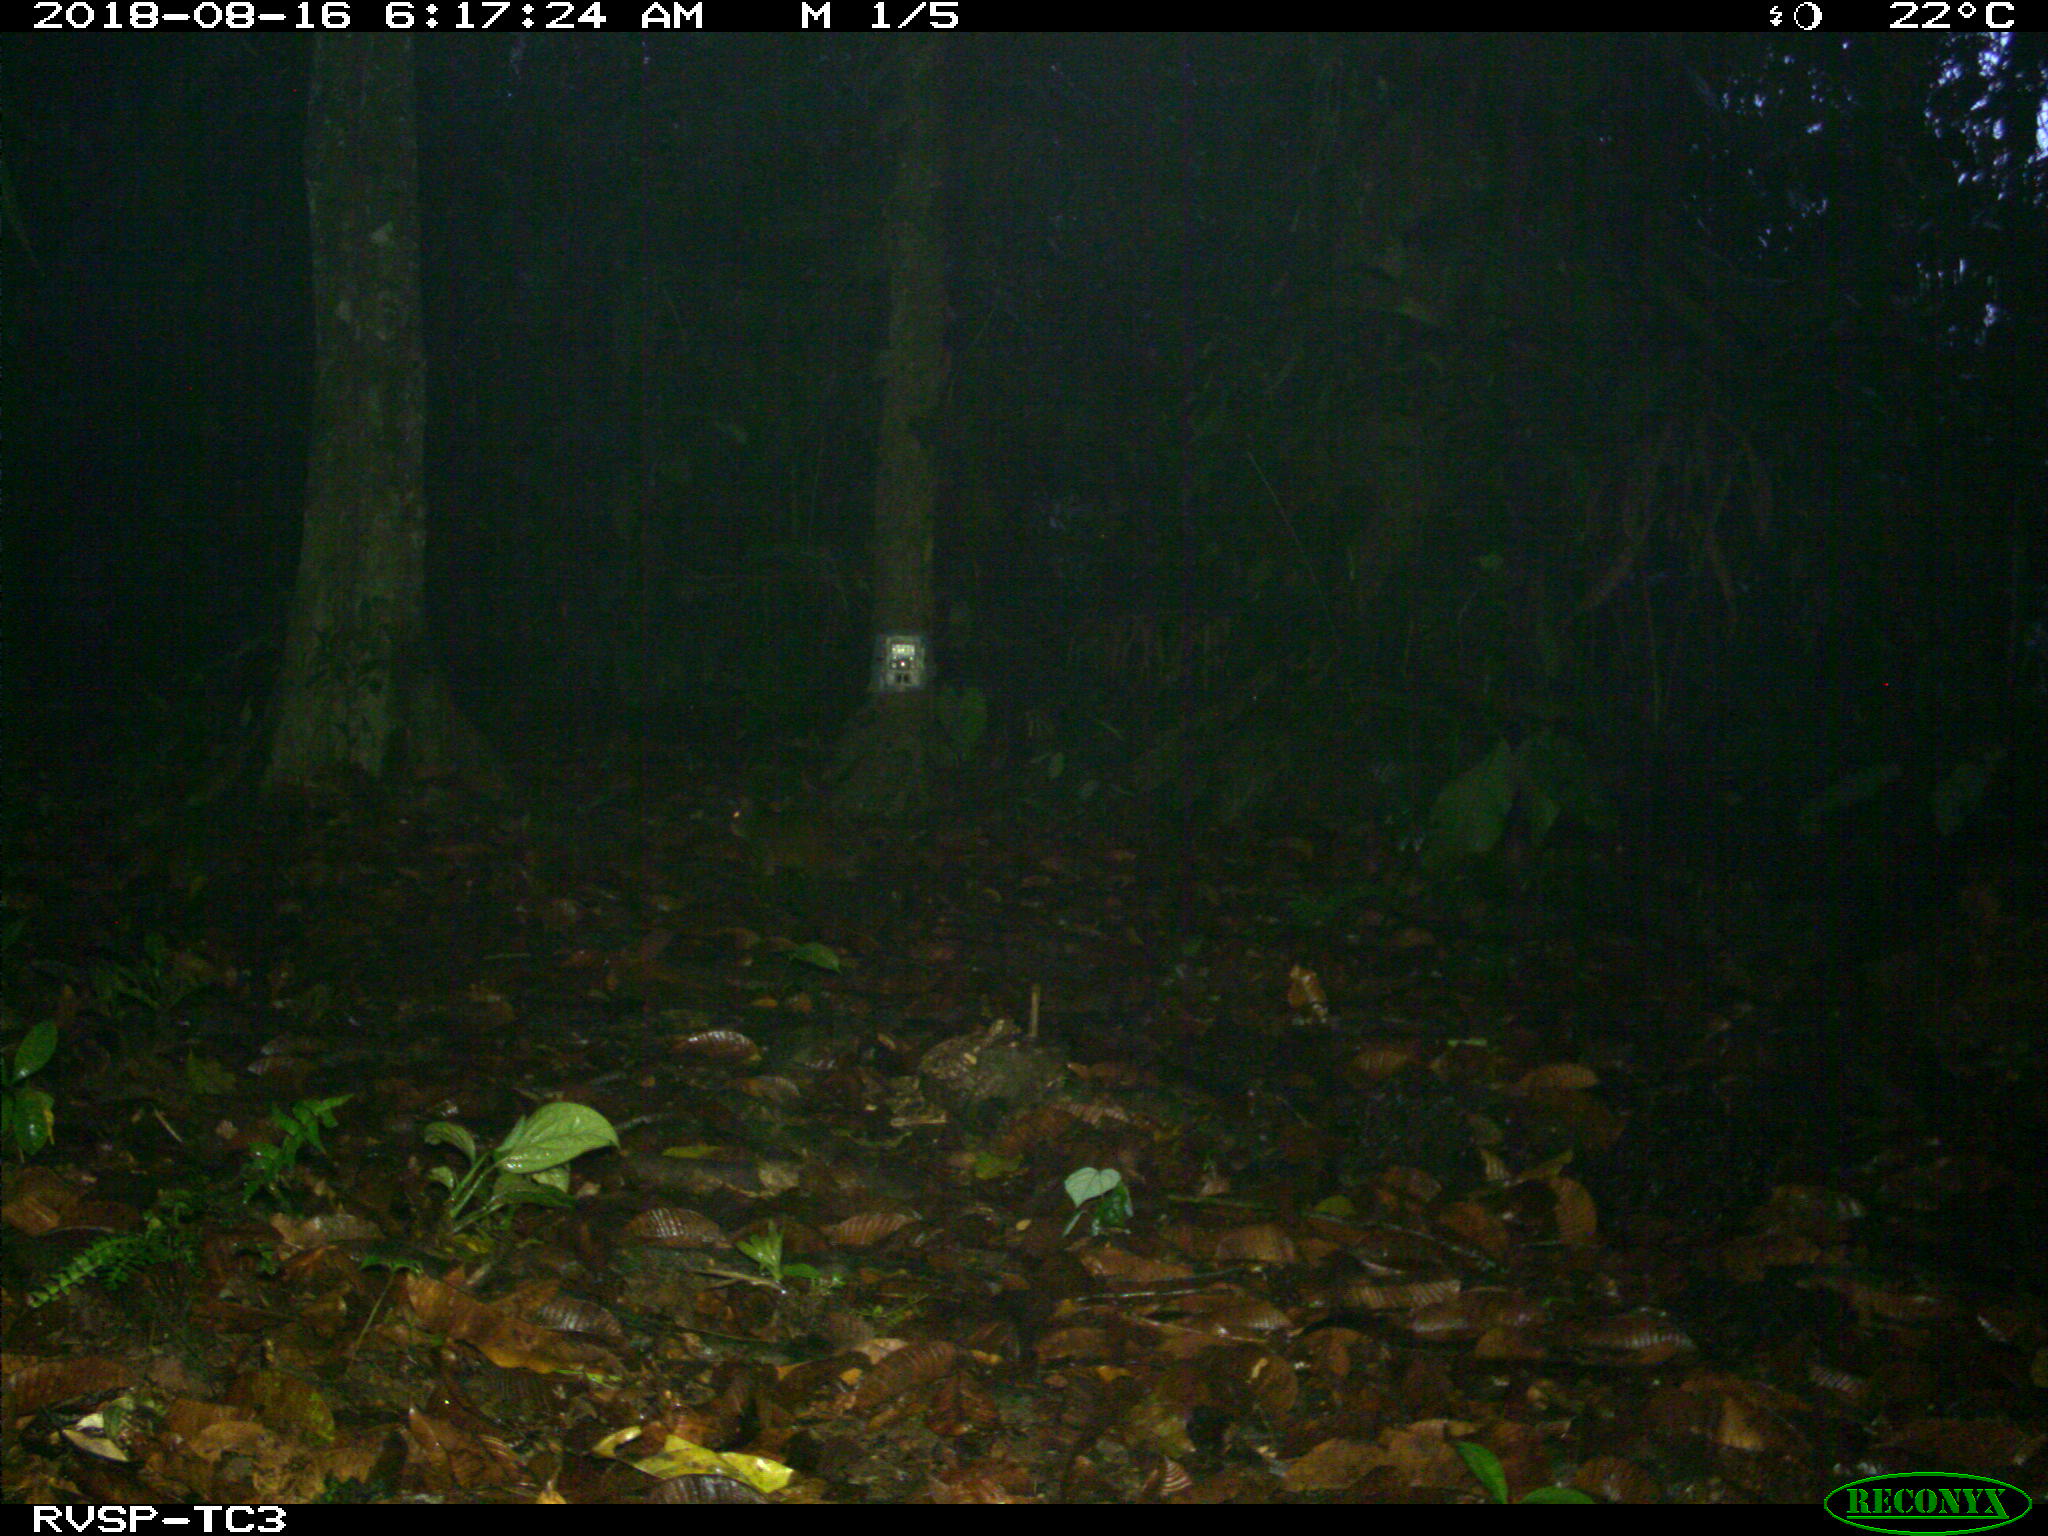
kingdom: Animalia
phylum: Chordata
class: Mammalia
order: Rodentia
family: Dasyproctidae
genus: Dasyprocta
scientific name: Dasyprocta punctata
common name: Central american agouti
